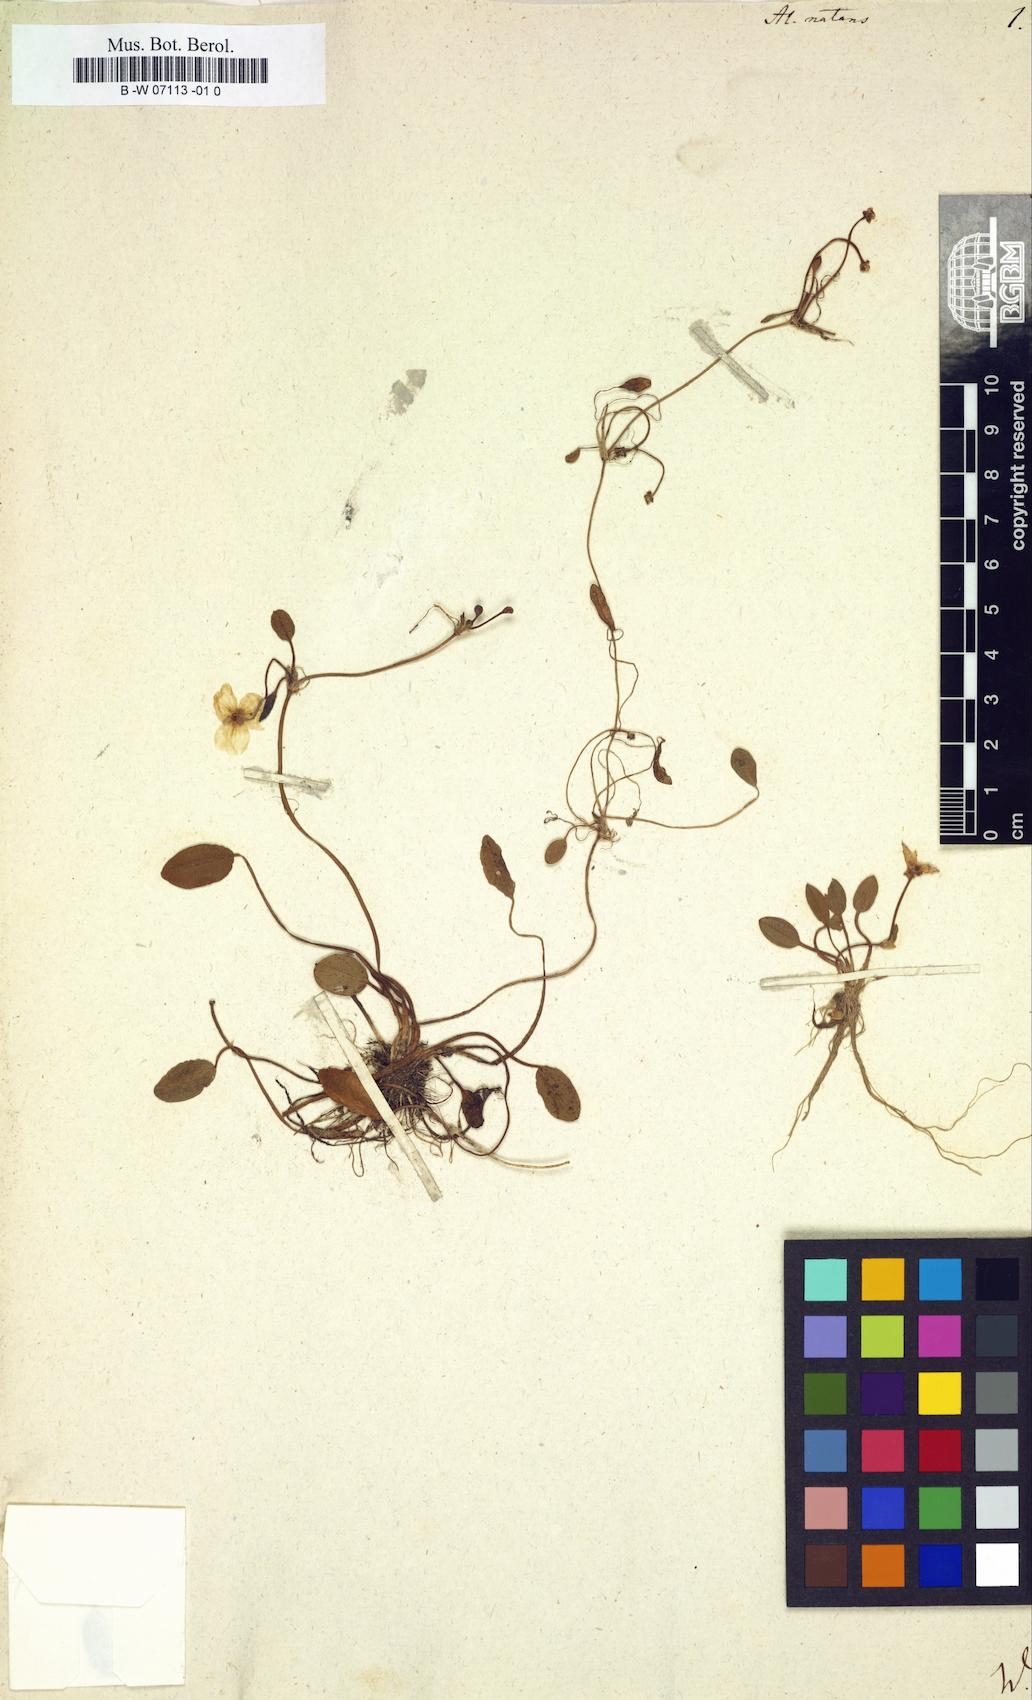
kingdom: Plantae
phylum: Tracheophyta
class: Liliopsida
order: Alismatales
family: Alismataceae
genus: Luronium
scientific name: Luronium natans
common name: Floating water-plantain
